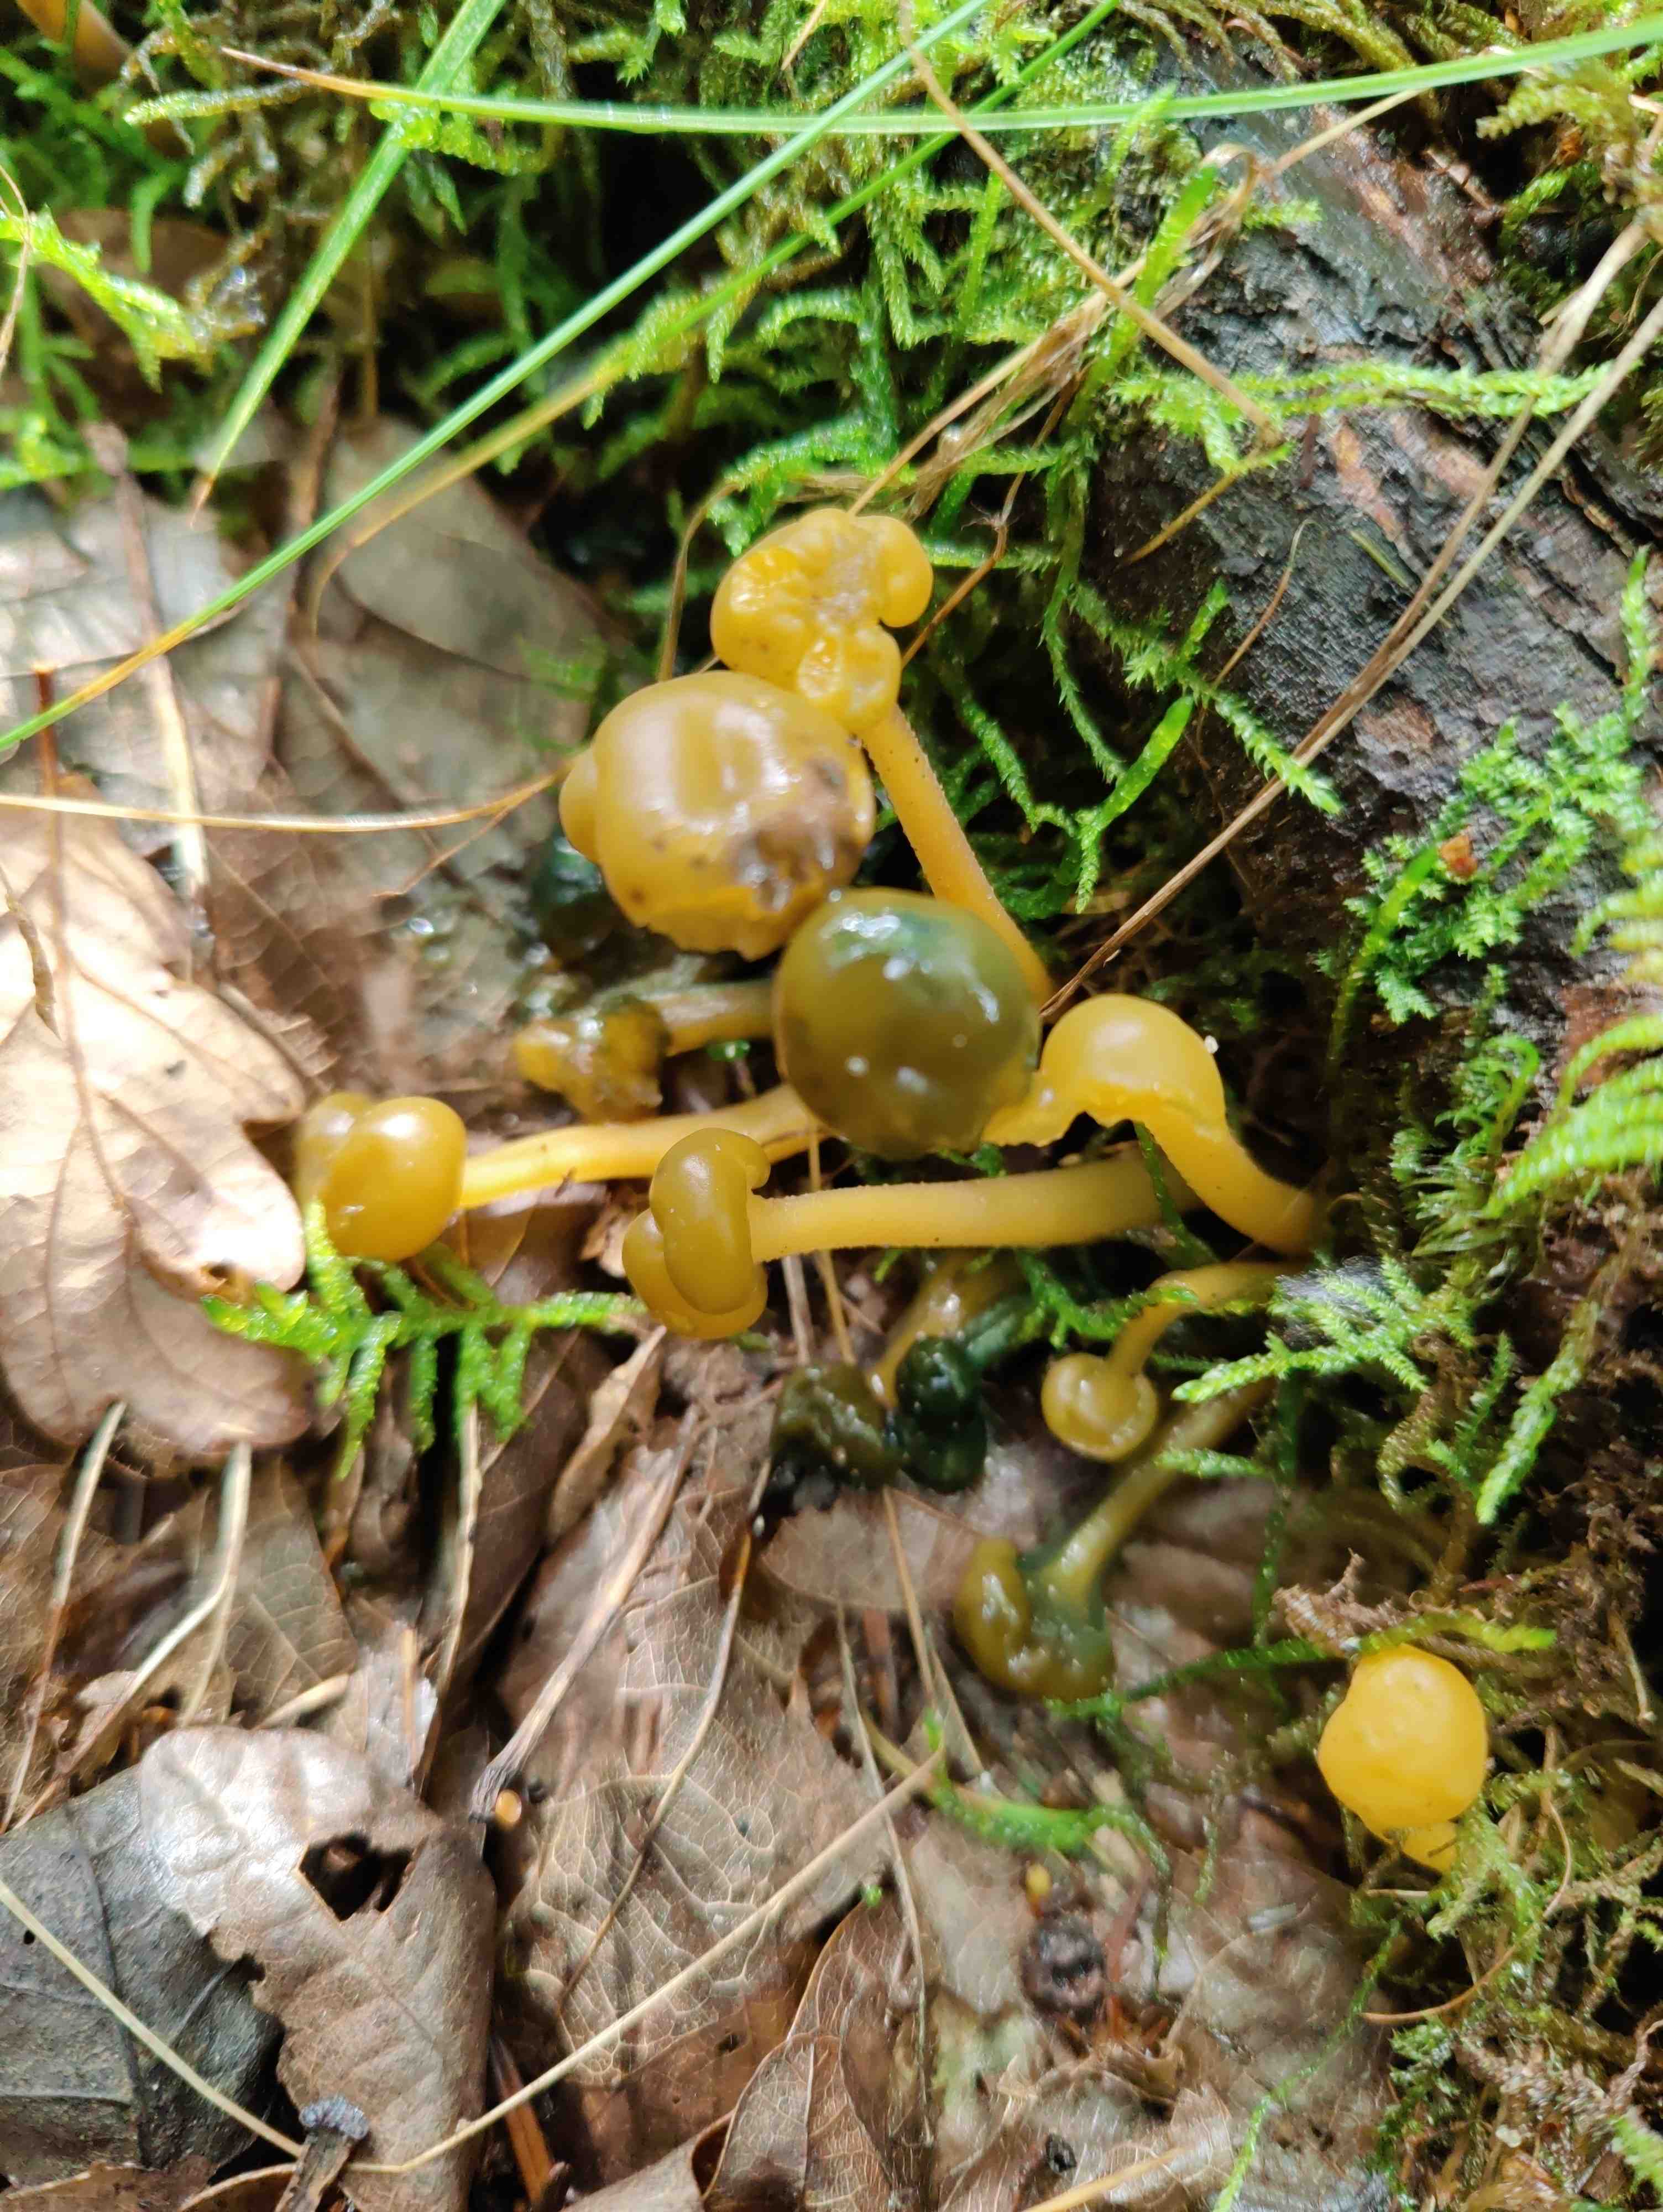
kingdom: Fungi
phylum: Ascomycota
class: Leotiomycetes
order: Leotiales
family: Leotiaceae
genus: Leotia
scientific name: Leotia lubrica
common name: ravsvamp
